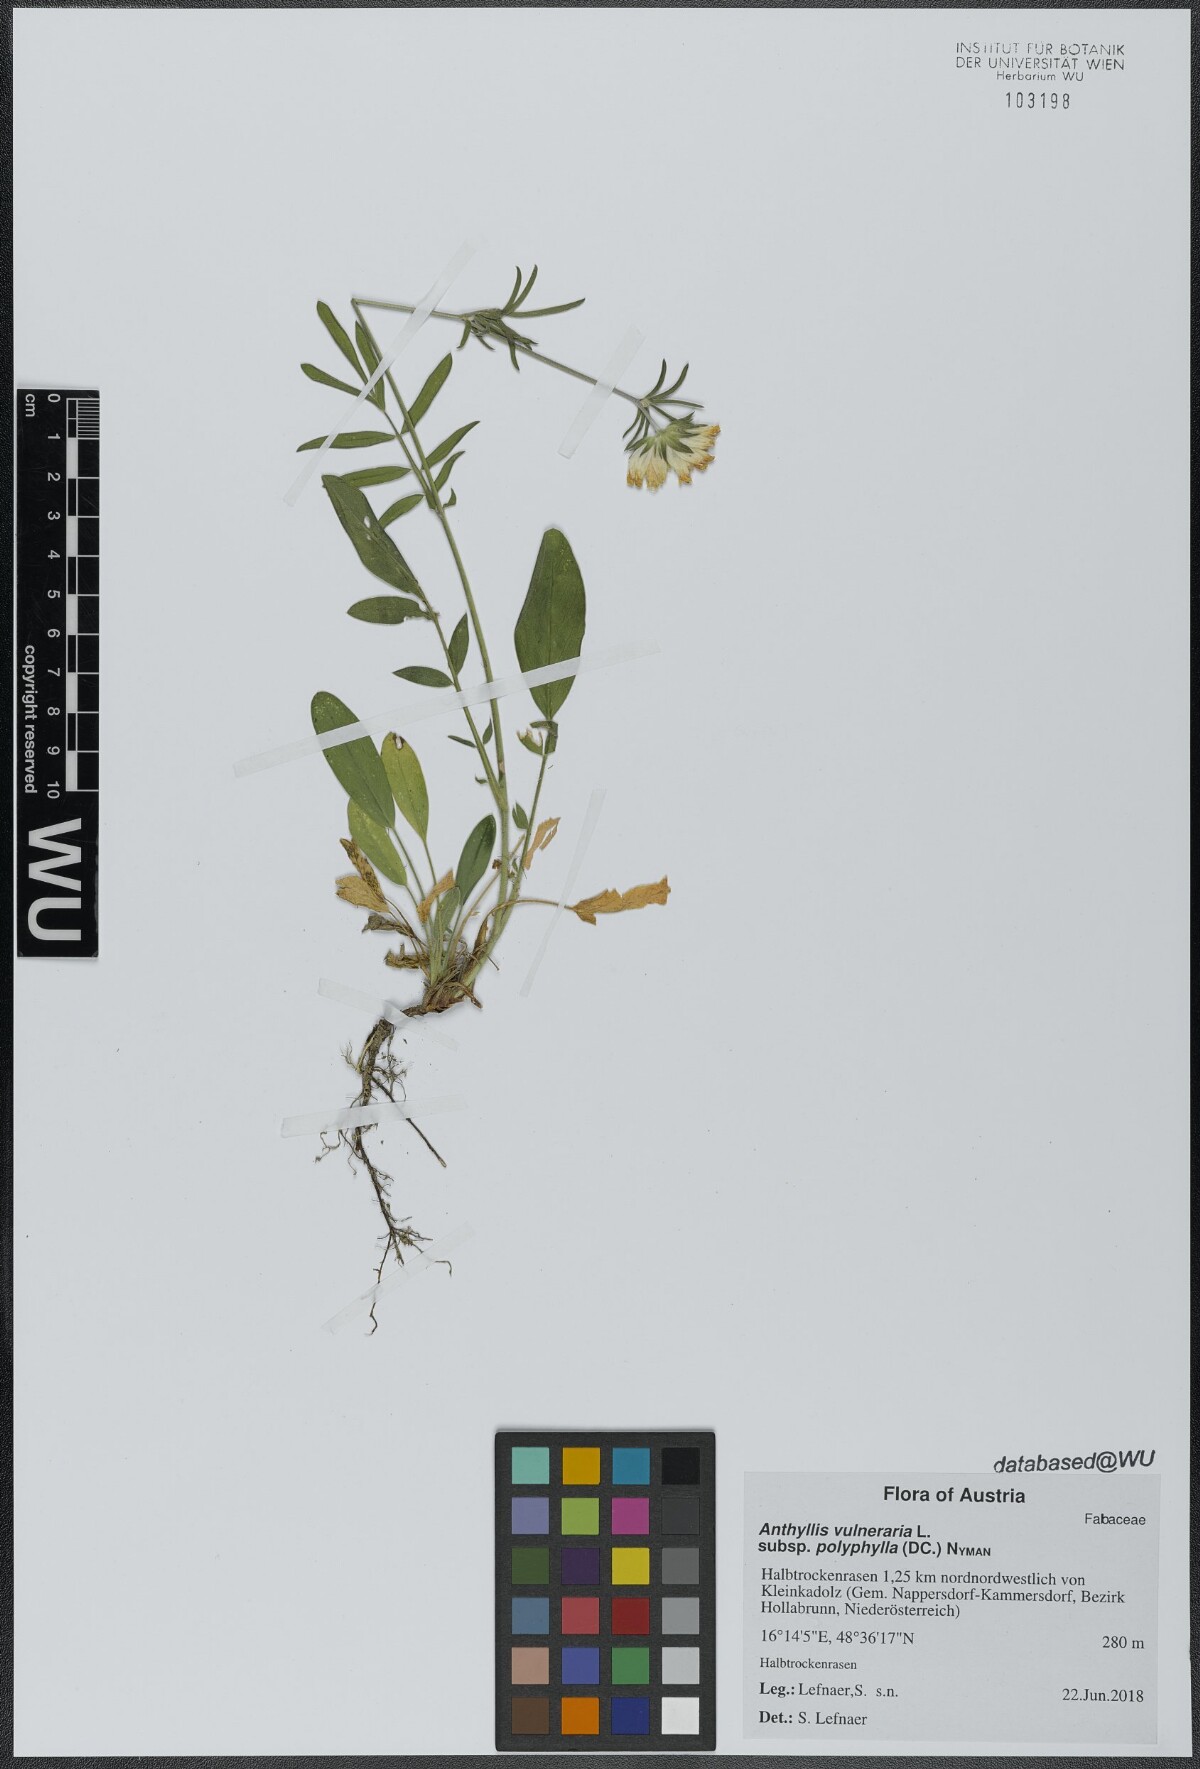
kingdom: Plantae
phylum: Tracheophyta
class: Magnoliopsida
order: Fabales
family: Fabaceae
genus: Anthyllis
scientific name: Anthyllis vulneraria
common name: Kidney vetch
